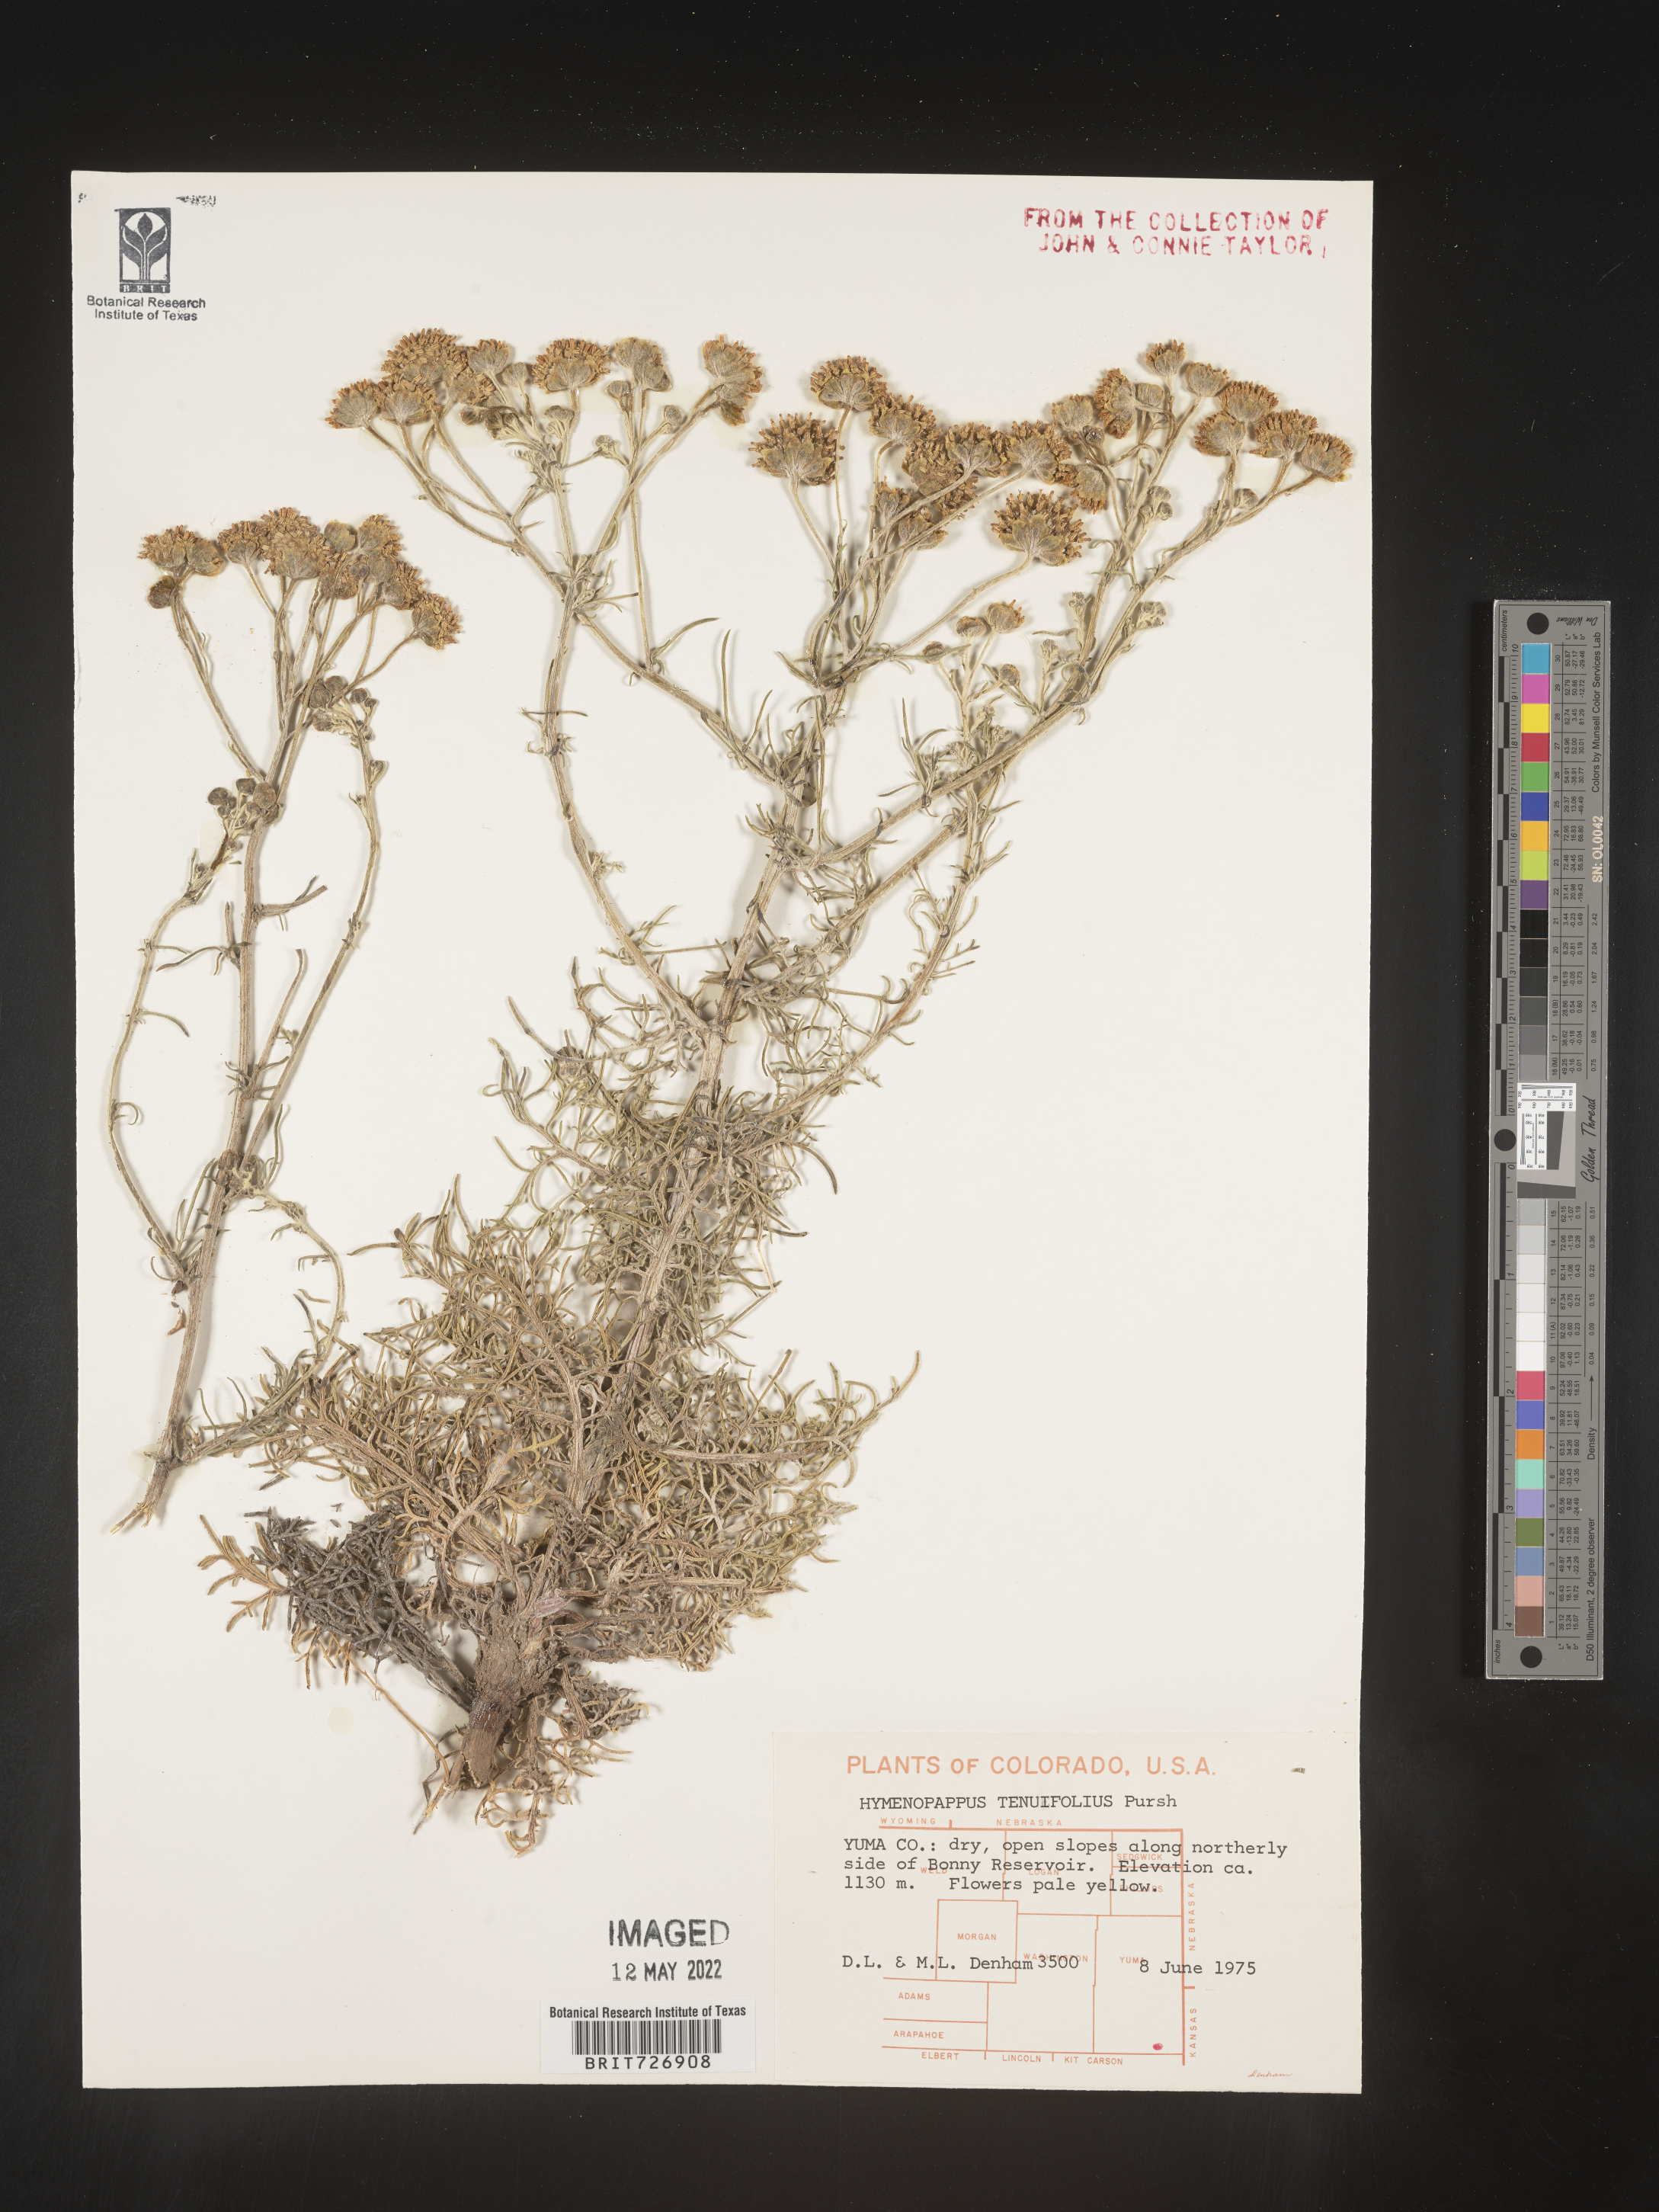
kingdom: Plantae
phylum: Tracheophyta
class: Magnoliopsida
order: Asterales
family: Asteraceae
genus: Hymenopappus
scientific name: Hymenopappus tenuifolius
